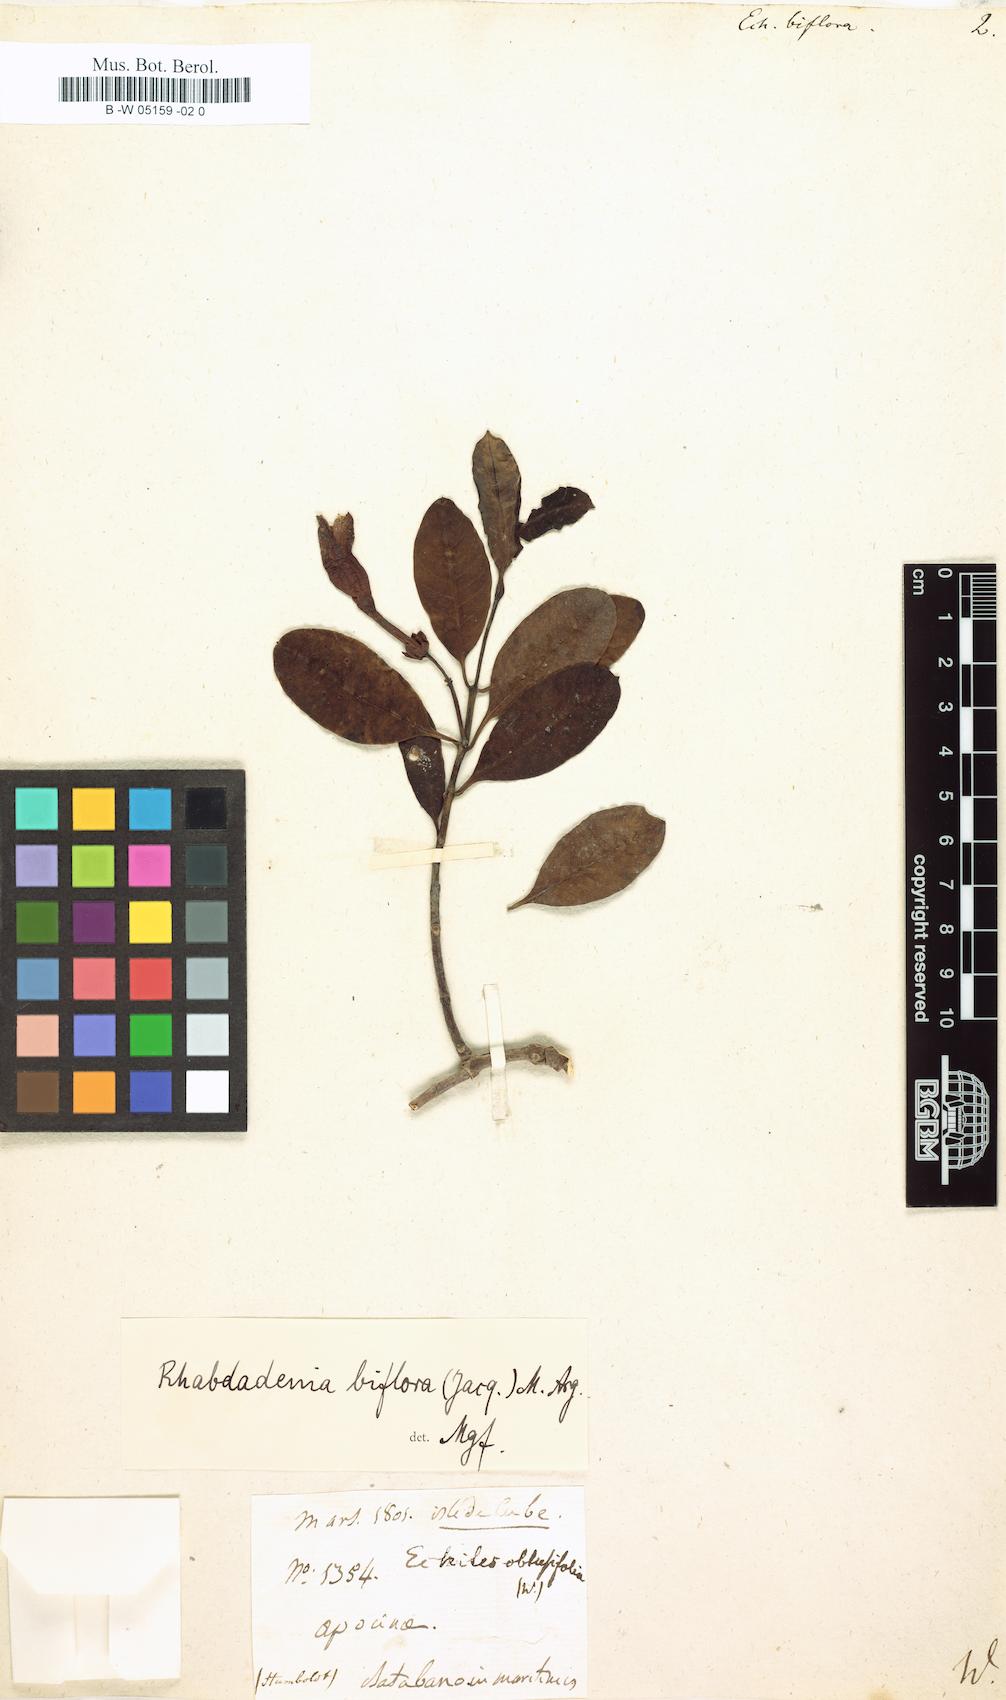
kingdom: Plantae
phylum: Tracheophyta
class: Magnoliopsida
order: Gentianales
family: Apocynaceae
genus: Rhabdadenia
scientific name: Rhabdadenia biflora
